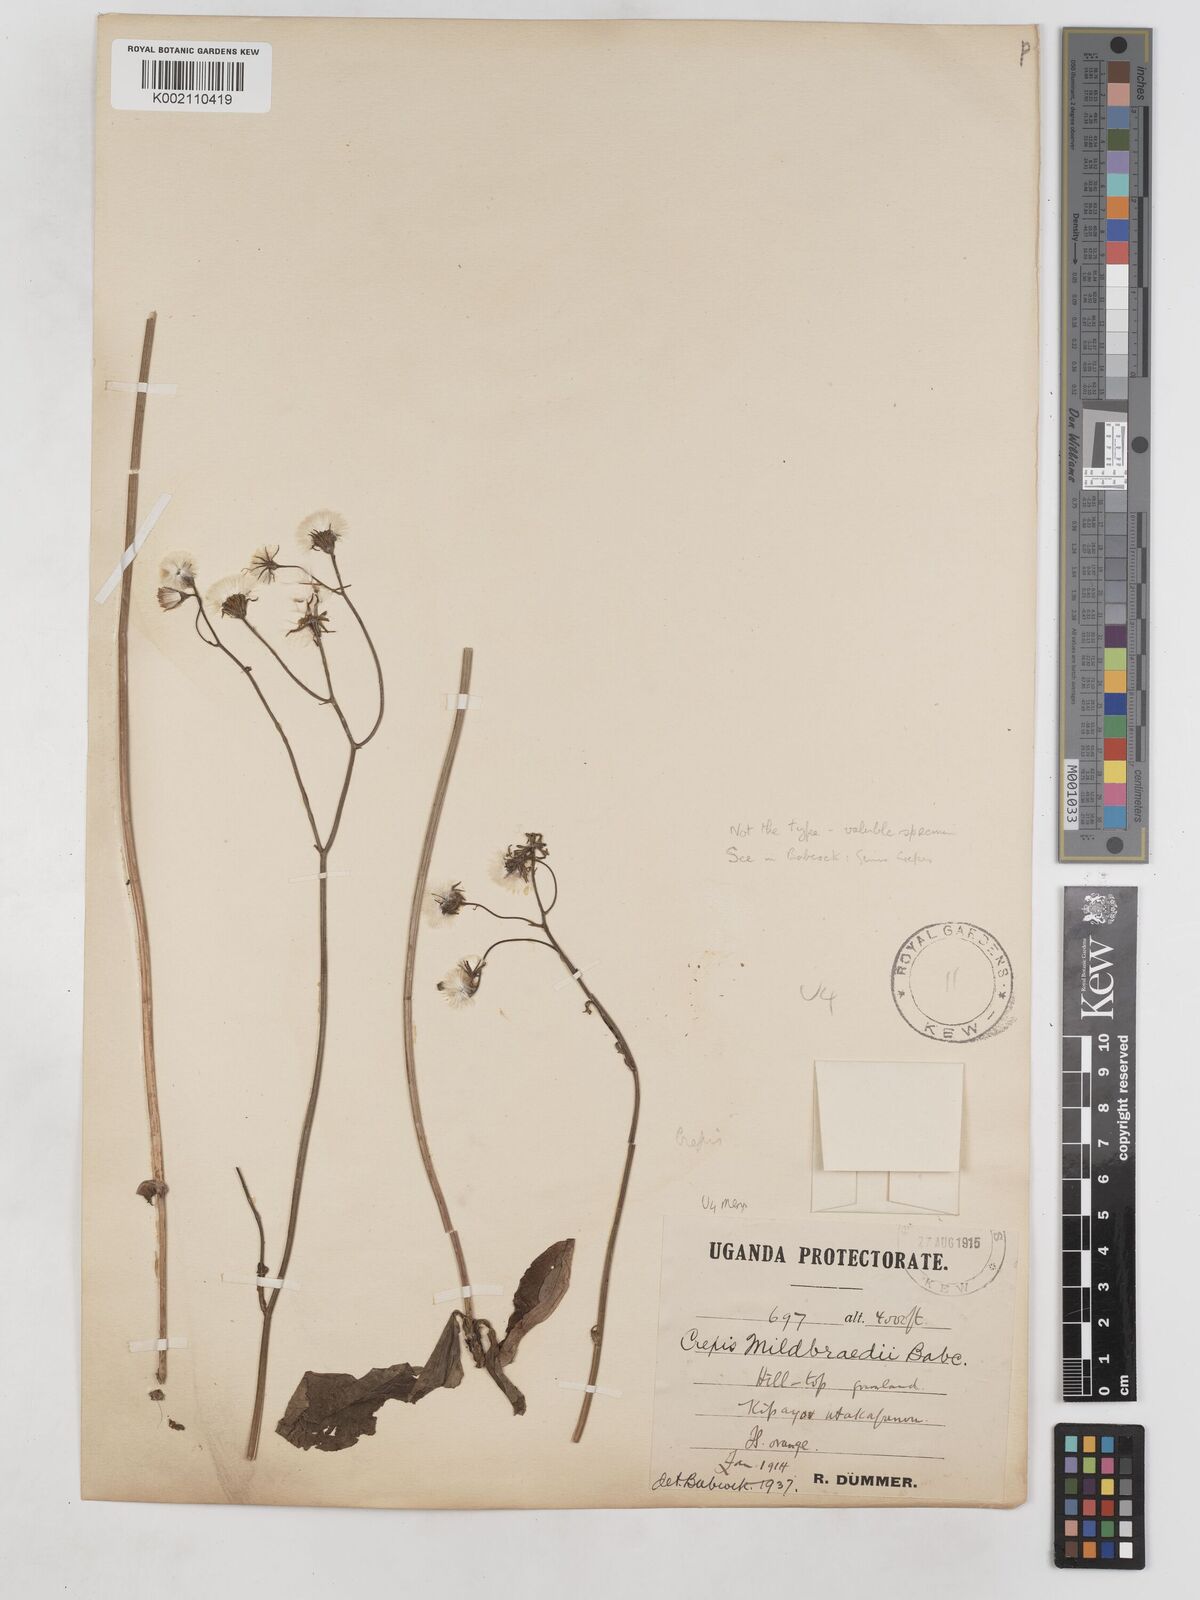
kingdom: Plantae
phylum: Tracheophyta
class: Magnoliopsida
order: Asterales
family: Asteraceae
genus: Crepis
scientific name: Crepis hypochoeridea
